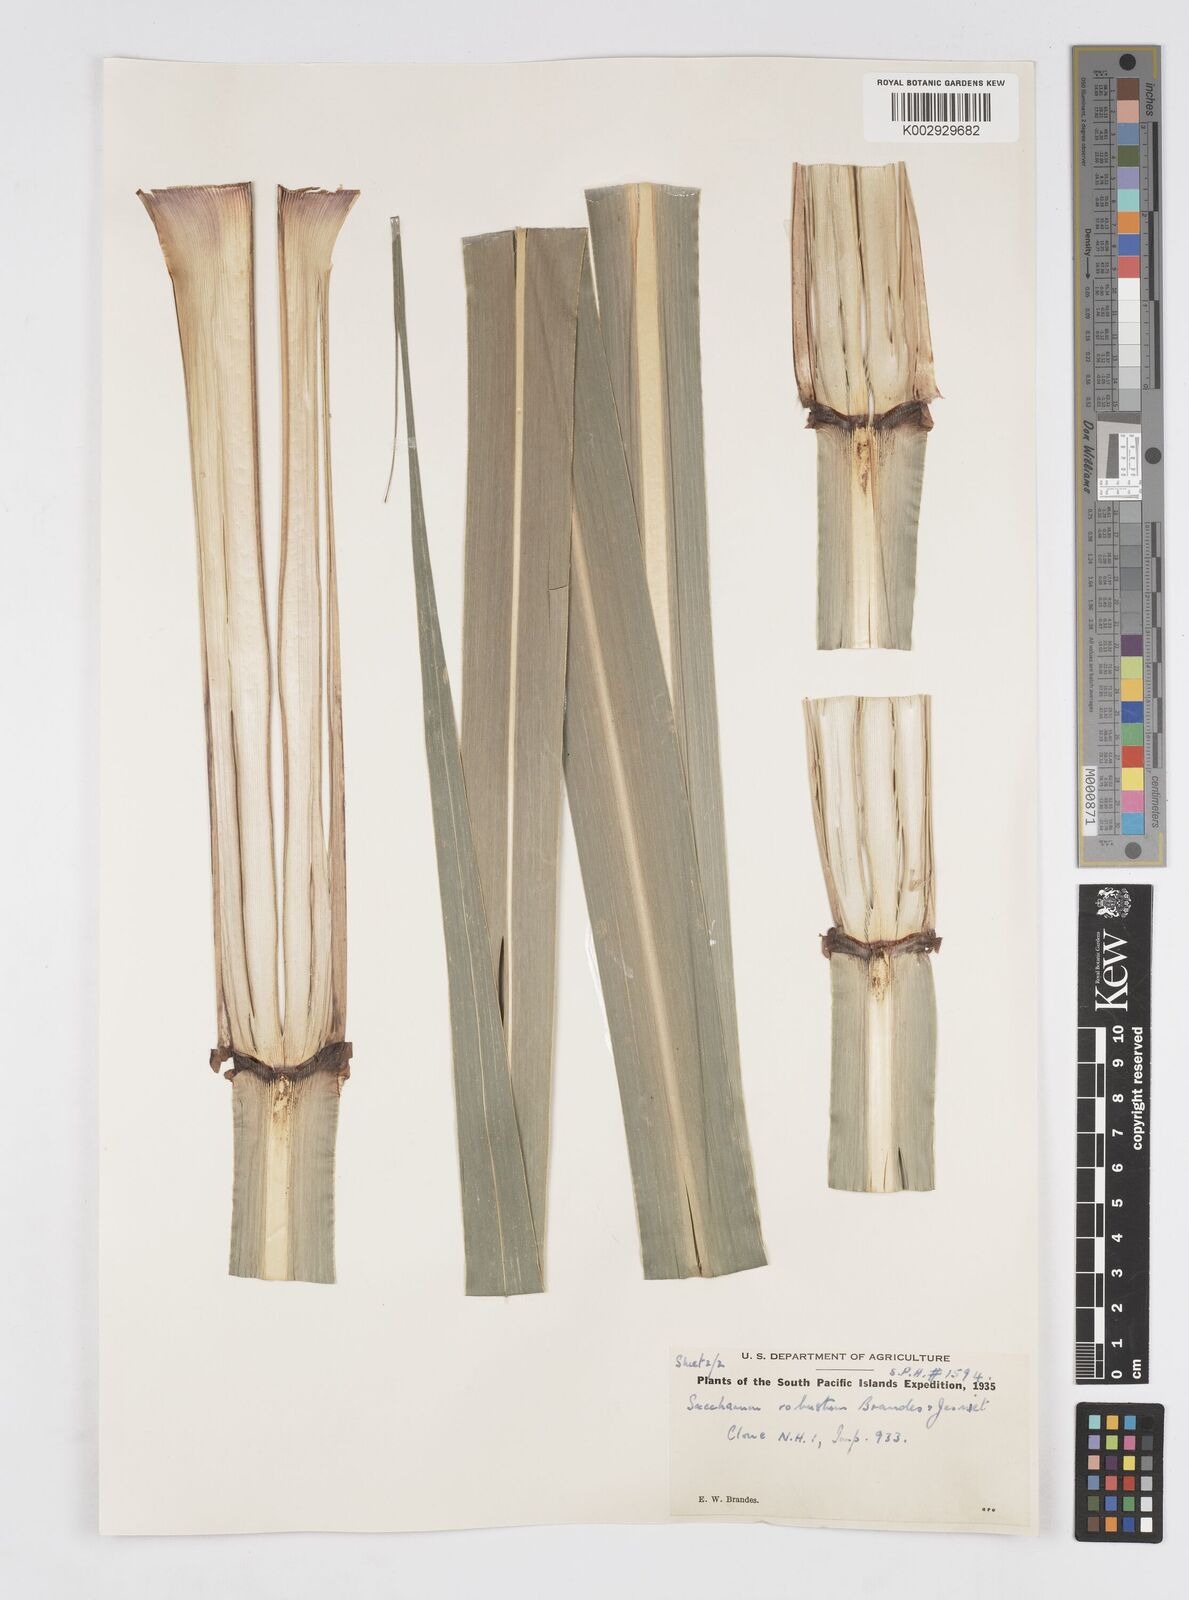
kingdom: Plantae
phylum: Tracheophyta
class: Liliopsida
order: Poales
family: Poaceae
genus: Saccharum
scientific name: Saccharum spontaneum
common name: Wild sugarcane
